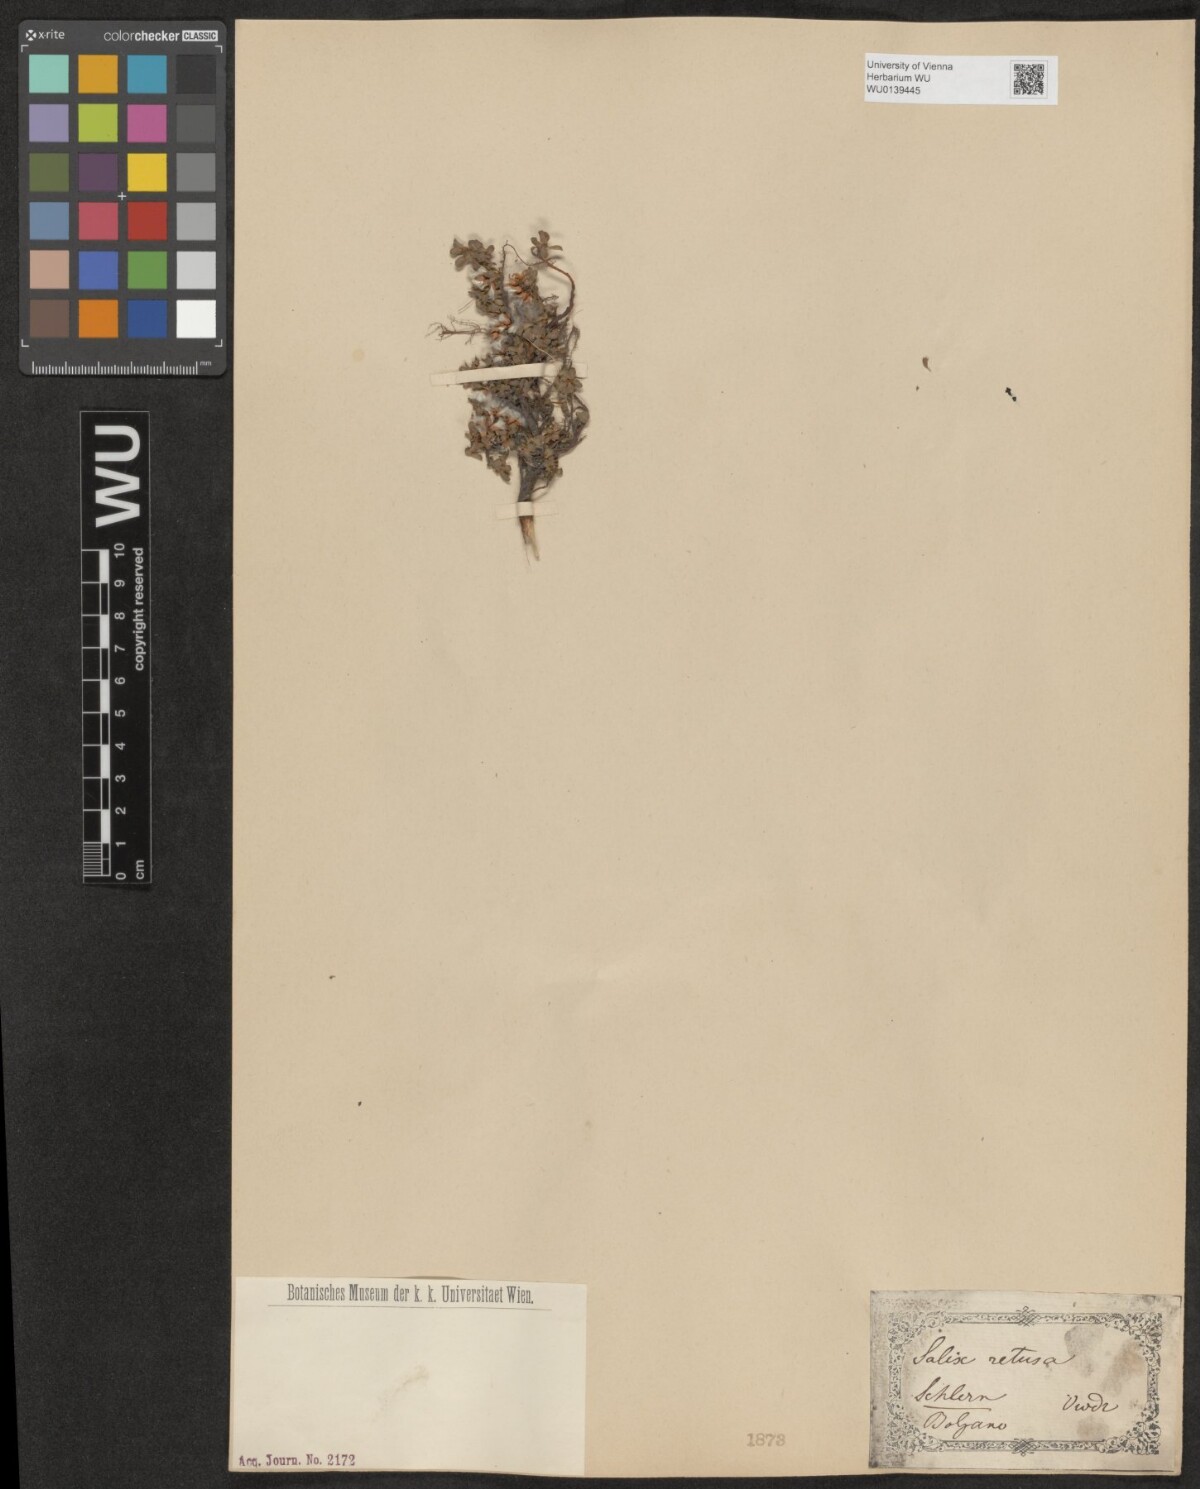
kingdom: Plantae
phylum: Tracheophyta
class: Magnoliopsida
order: Malpighiales
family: Salicaceae
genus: Salix
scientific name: Salix retusa
